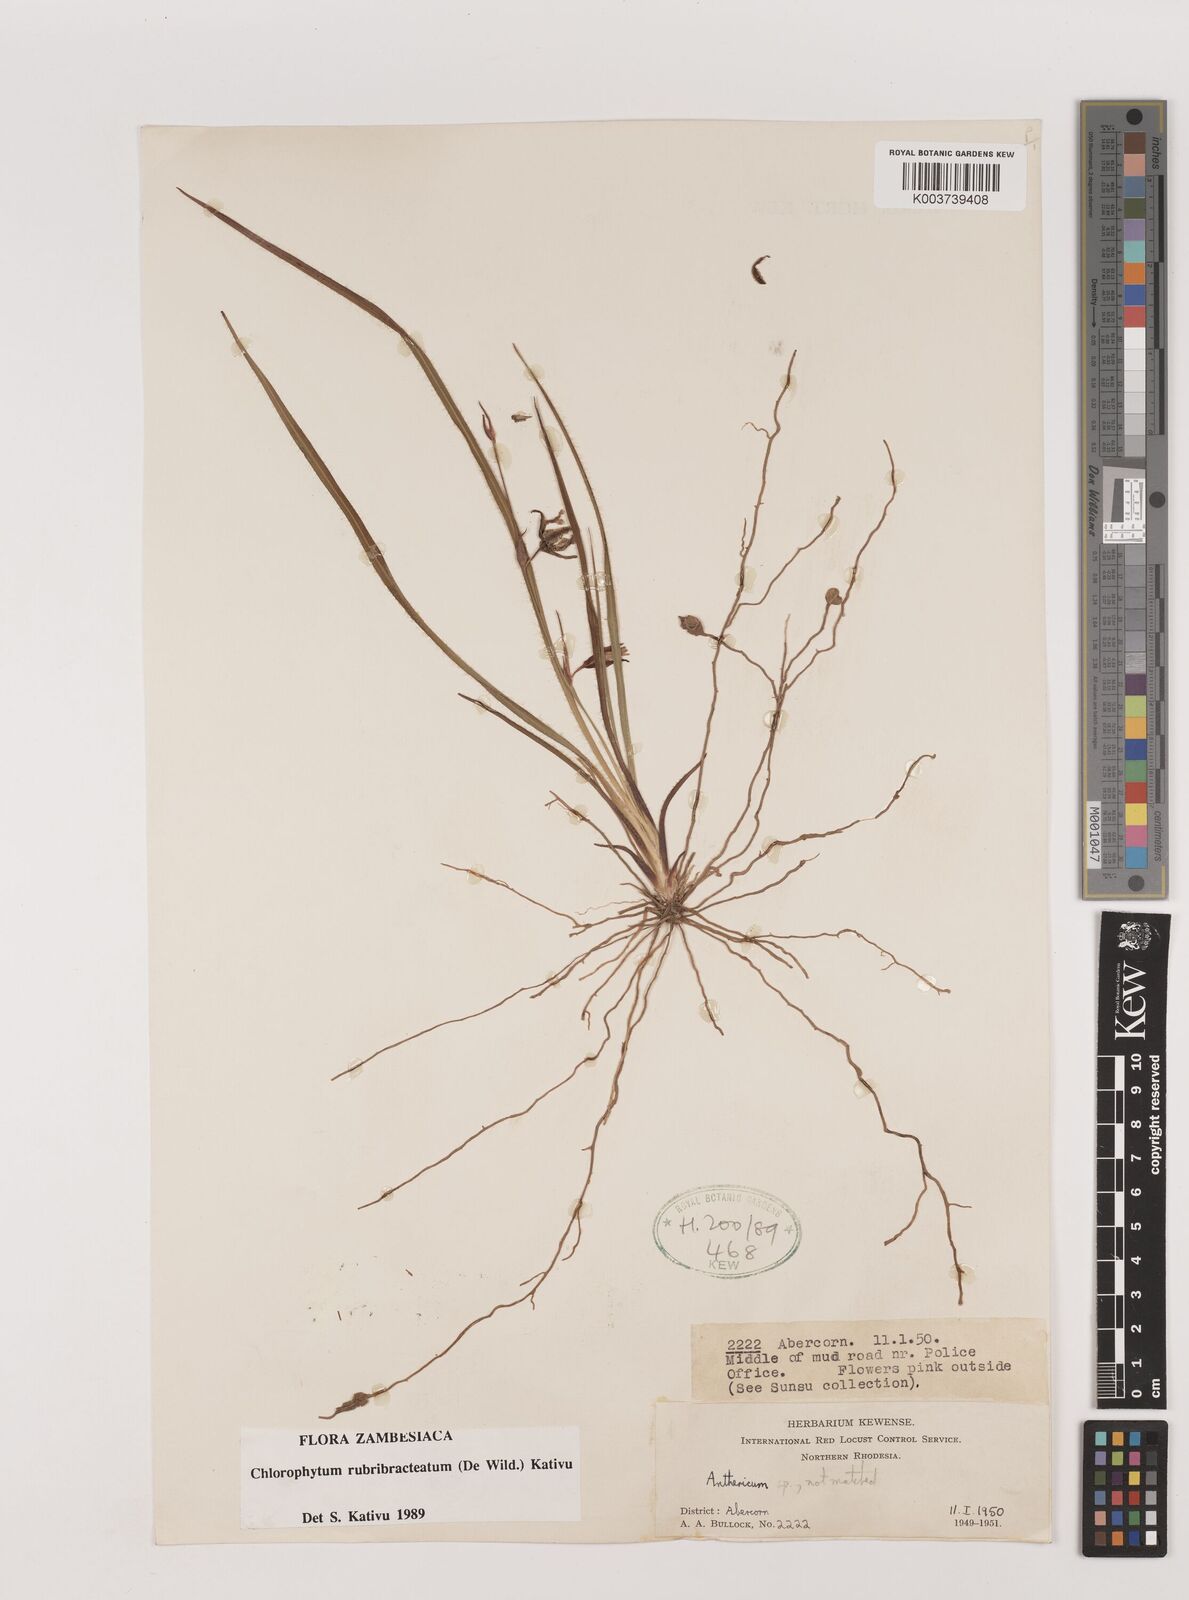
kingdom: Plantae
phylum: Tracheophyta
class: Liliopsida
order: Asparagales
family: Asparagaceae
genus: Chlorophytum
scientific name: Chlorophytum rubribracteatum
